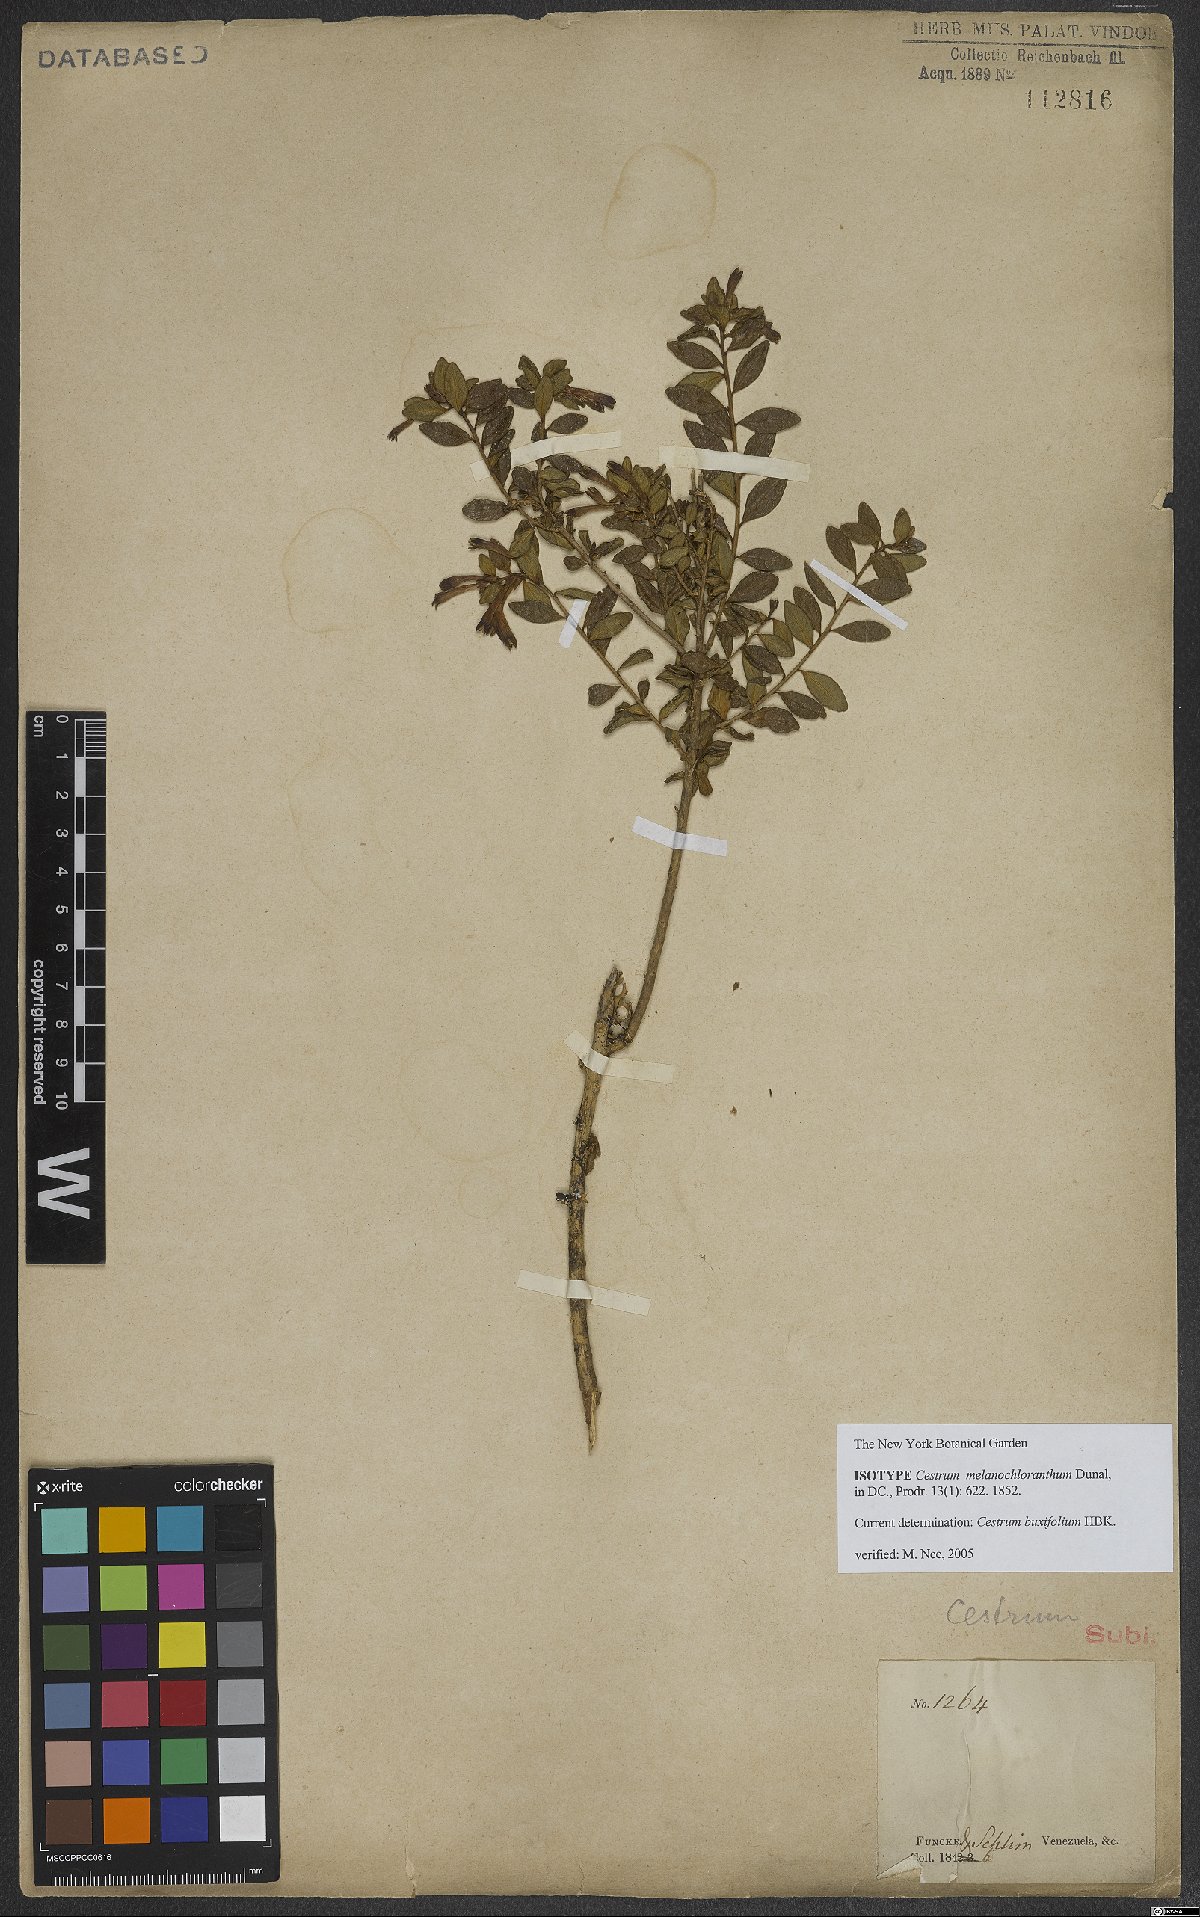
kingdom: Plantae
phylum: Tracheophyta
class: Magnoliopsida
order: Solanales
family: Solanaceae
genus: Cestrum
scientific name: Cestrum buxifolium
